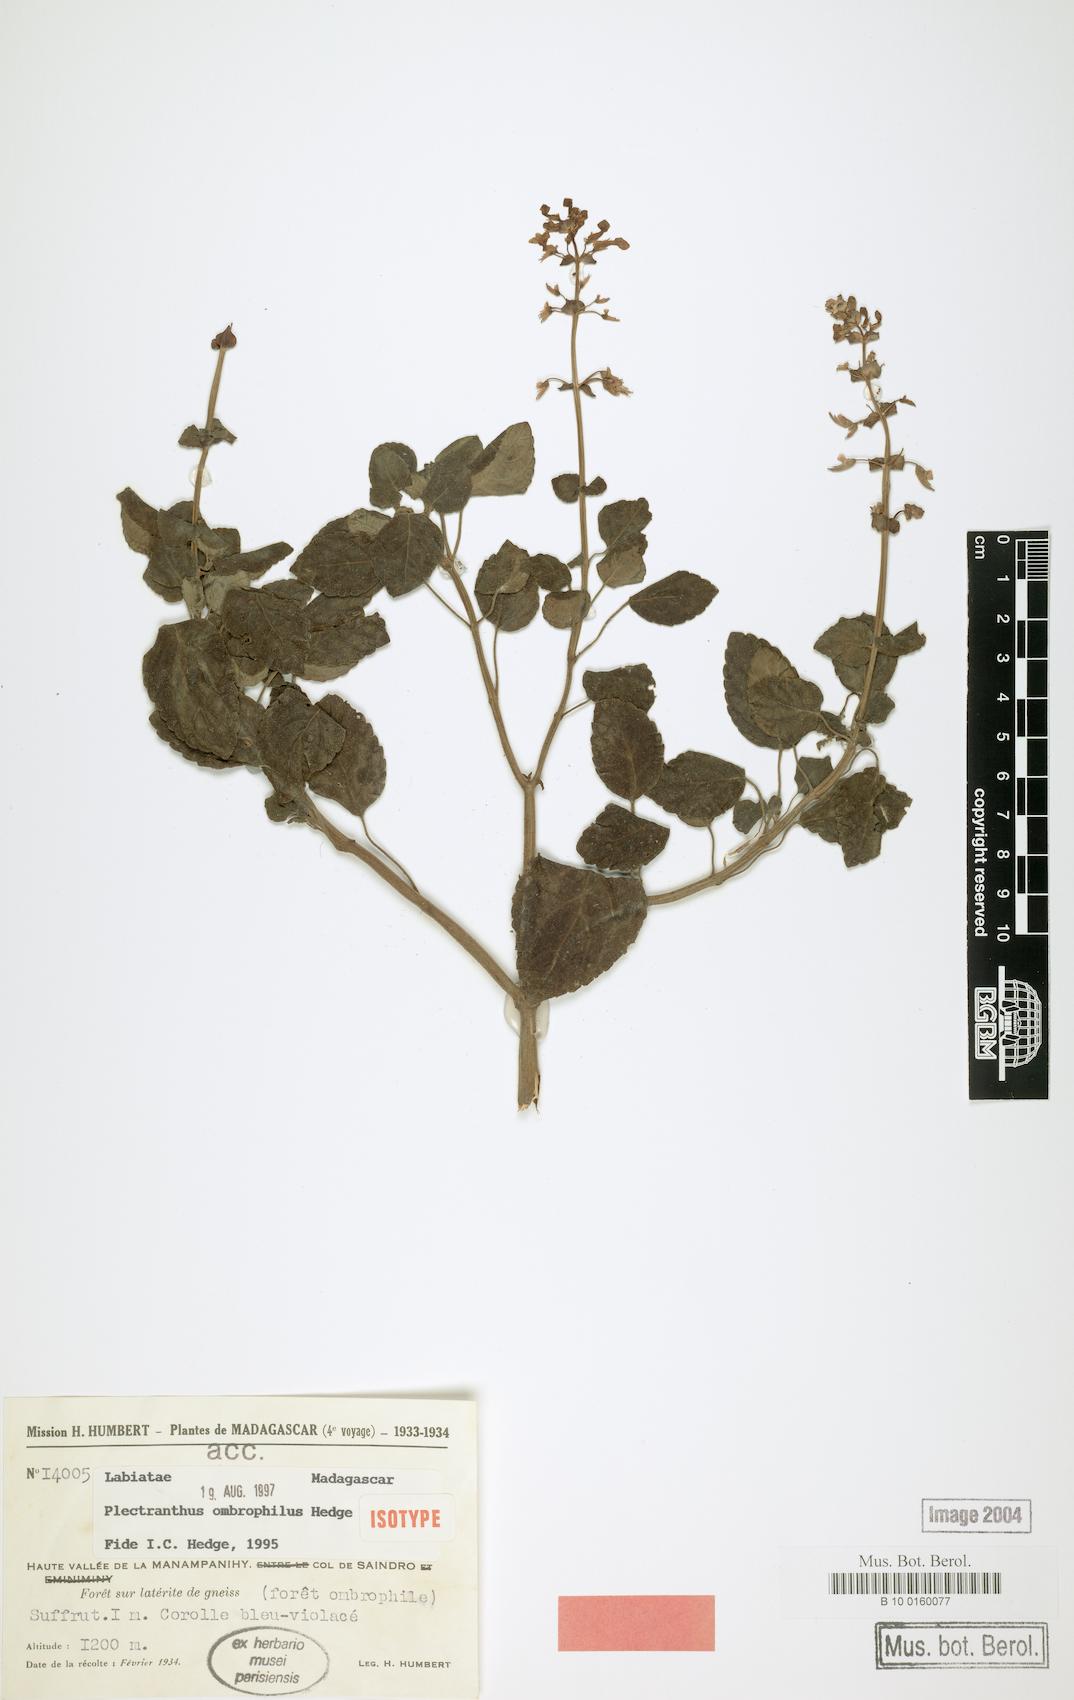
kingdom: Plantae
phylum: Tracheophyta
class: Magnoliopsida
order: Lamiales
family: Lamiaceae
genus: Plectranthus
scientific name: Plectranthus ombrophilus
